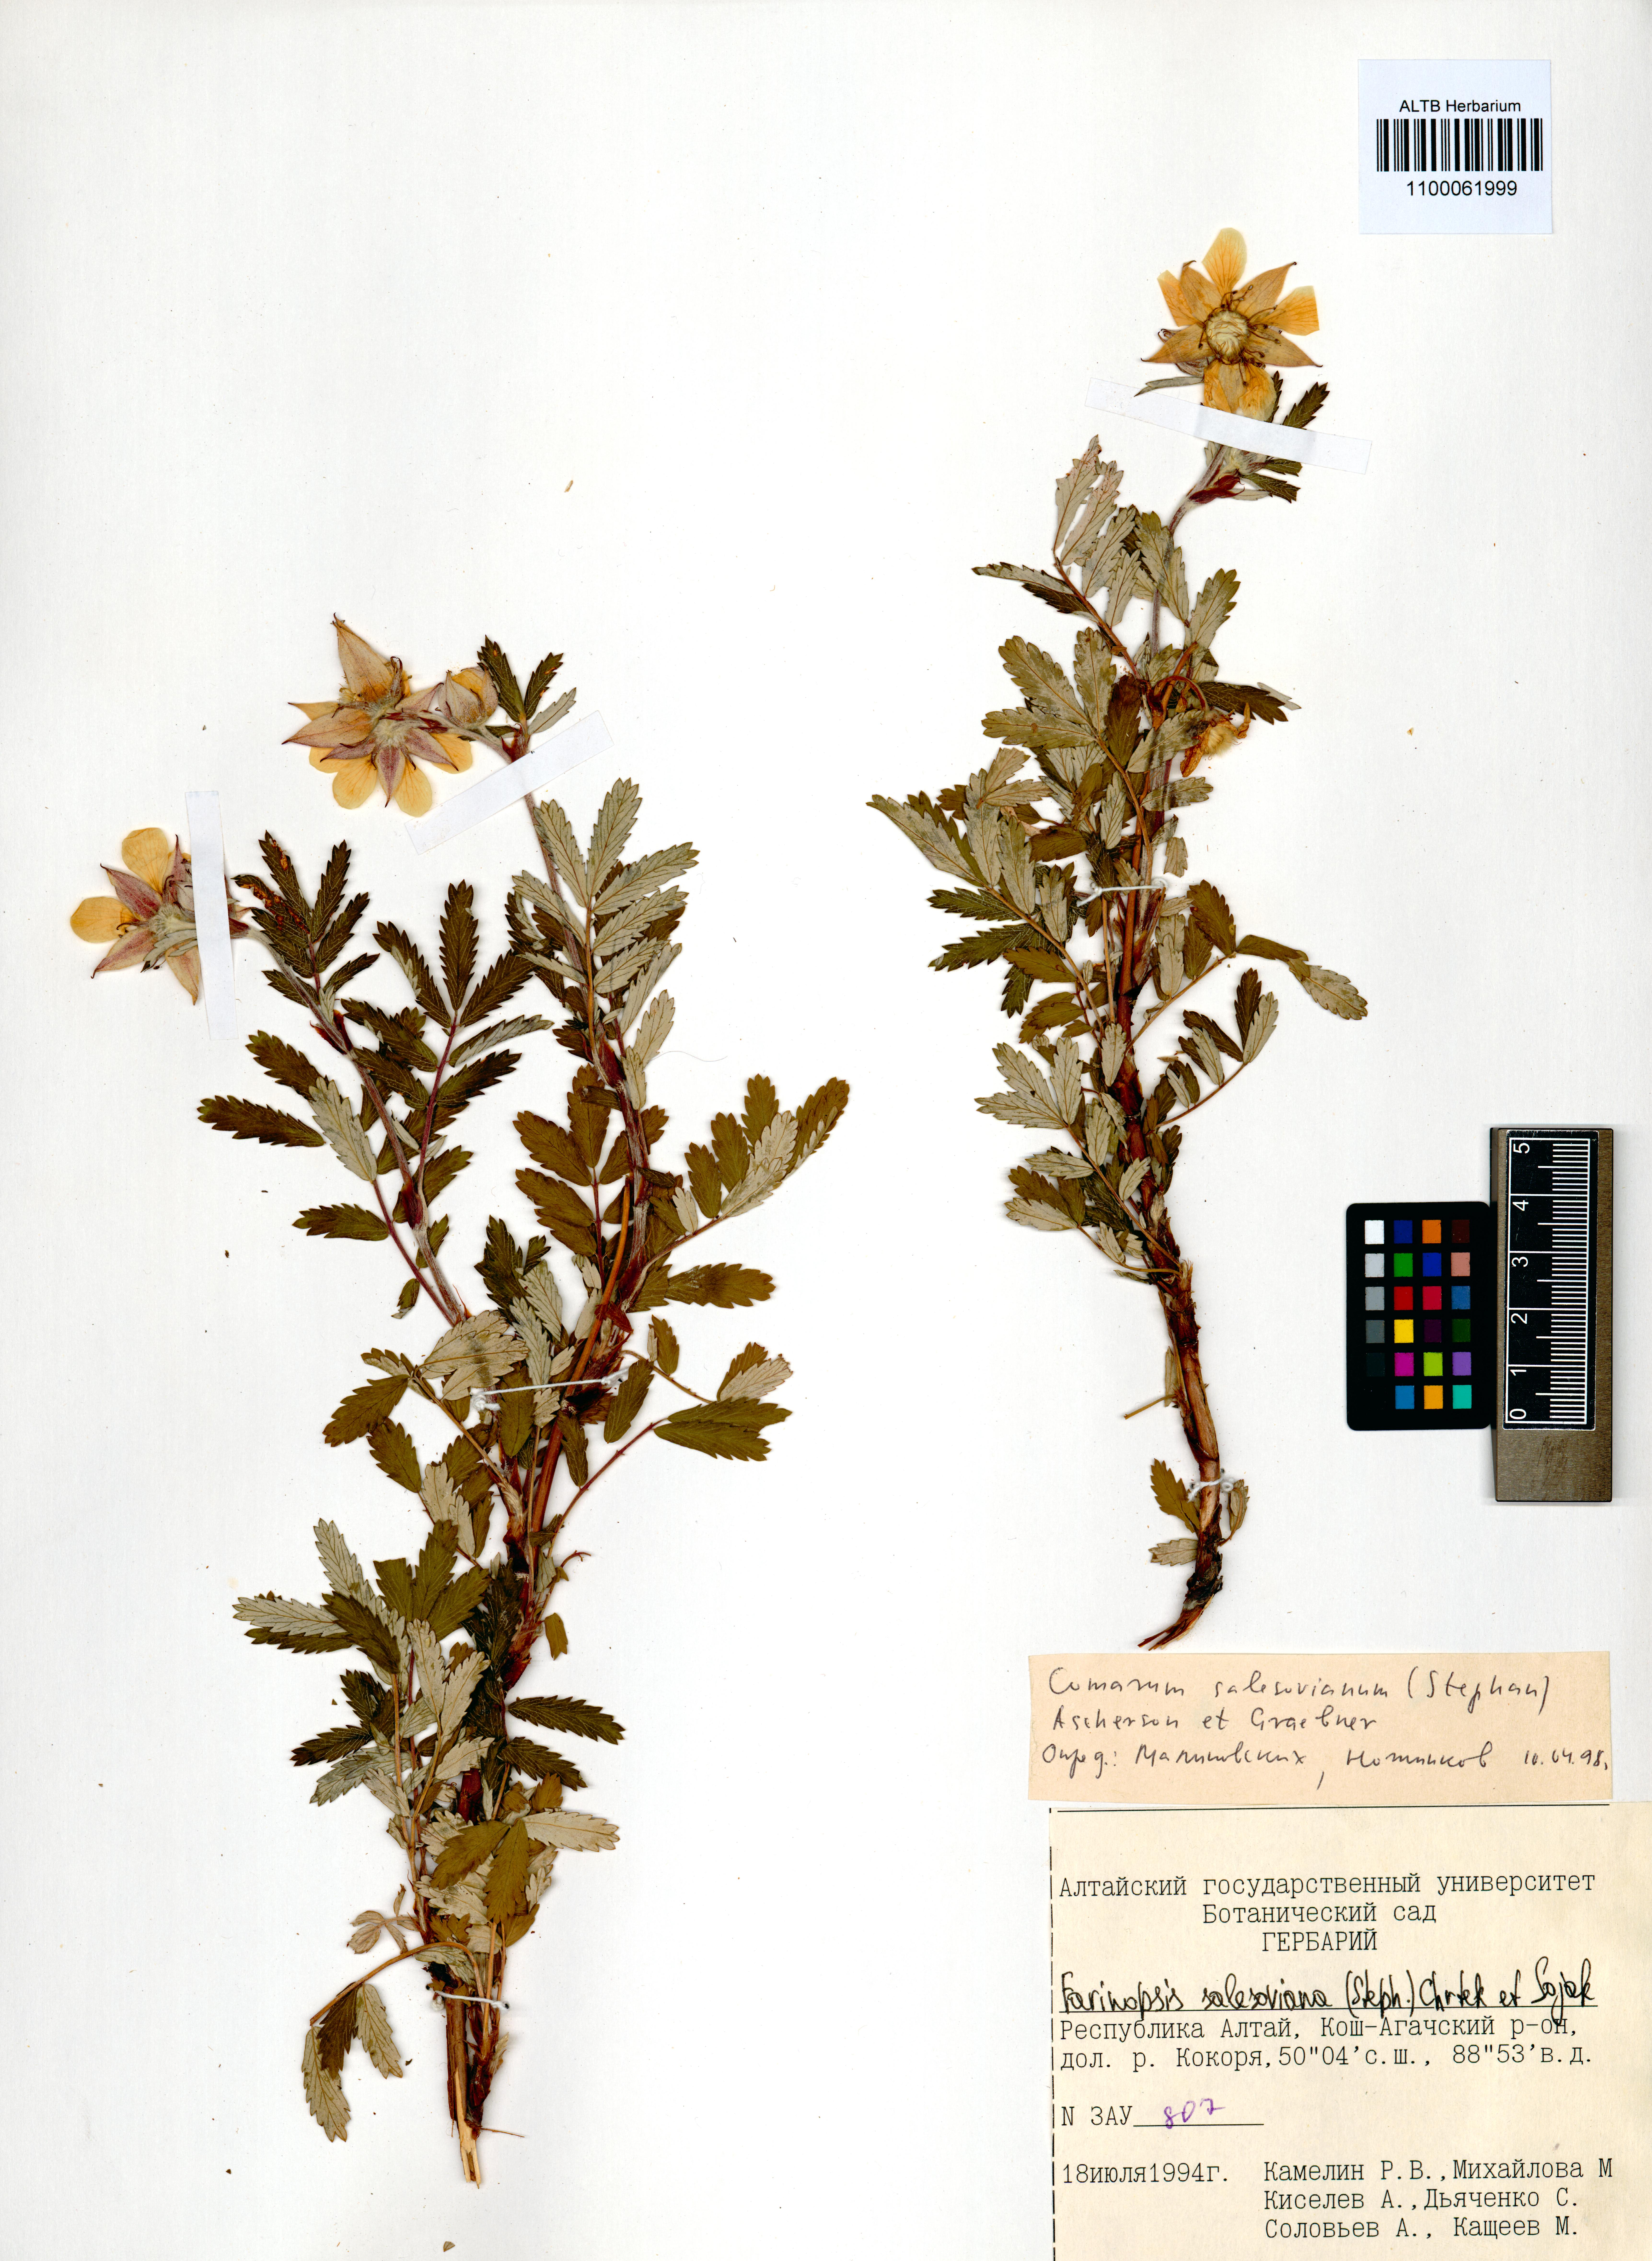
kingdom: Plantae
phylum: Tracheophyta
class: Magnoliopsida
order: Rosales
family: Rosaceae
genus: Farinopsis
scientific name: Farinopsis salesoviana
